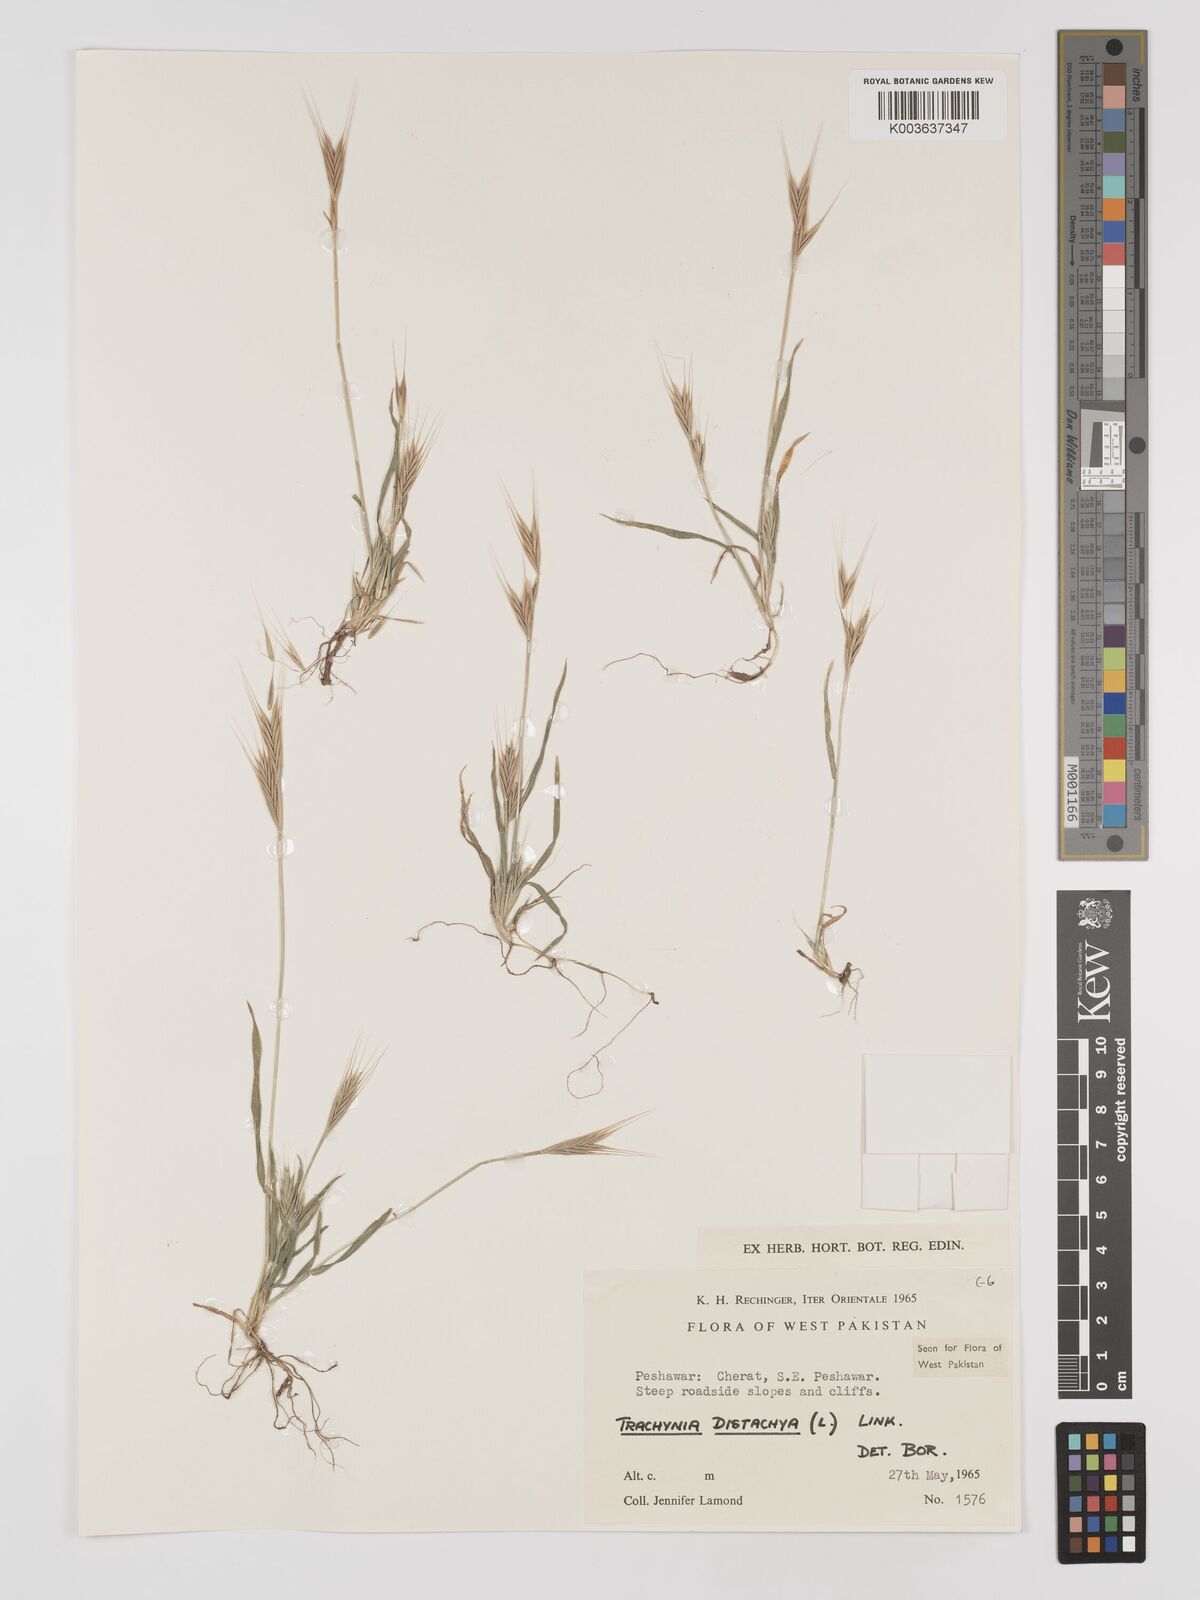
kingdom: Plantae
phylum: Tracheophyta
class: Liliopsida
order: Poales
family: Poaceae
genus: Brachypodium
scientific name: Brachypodium distachyon
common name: Stiff brome
